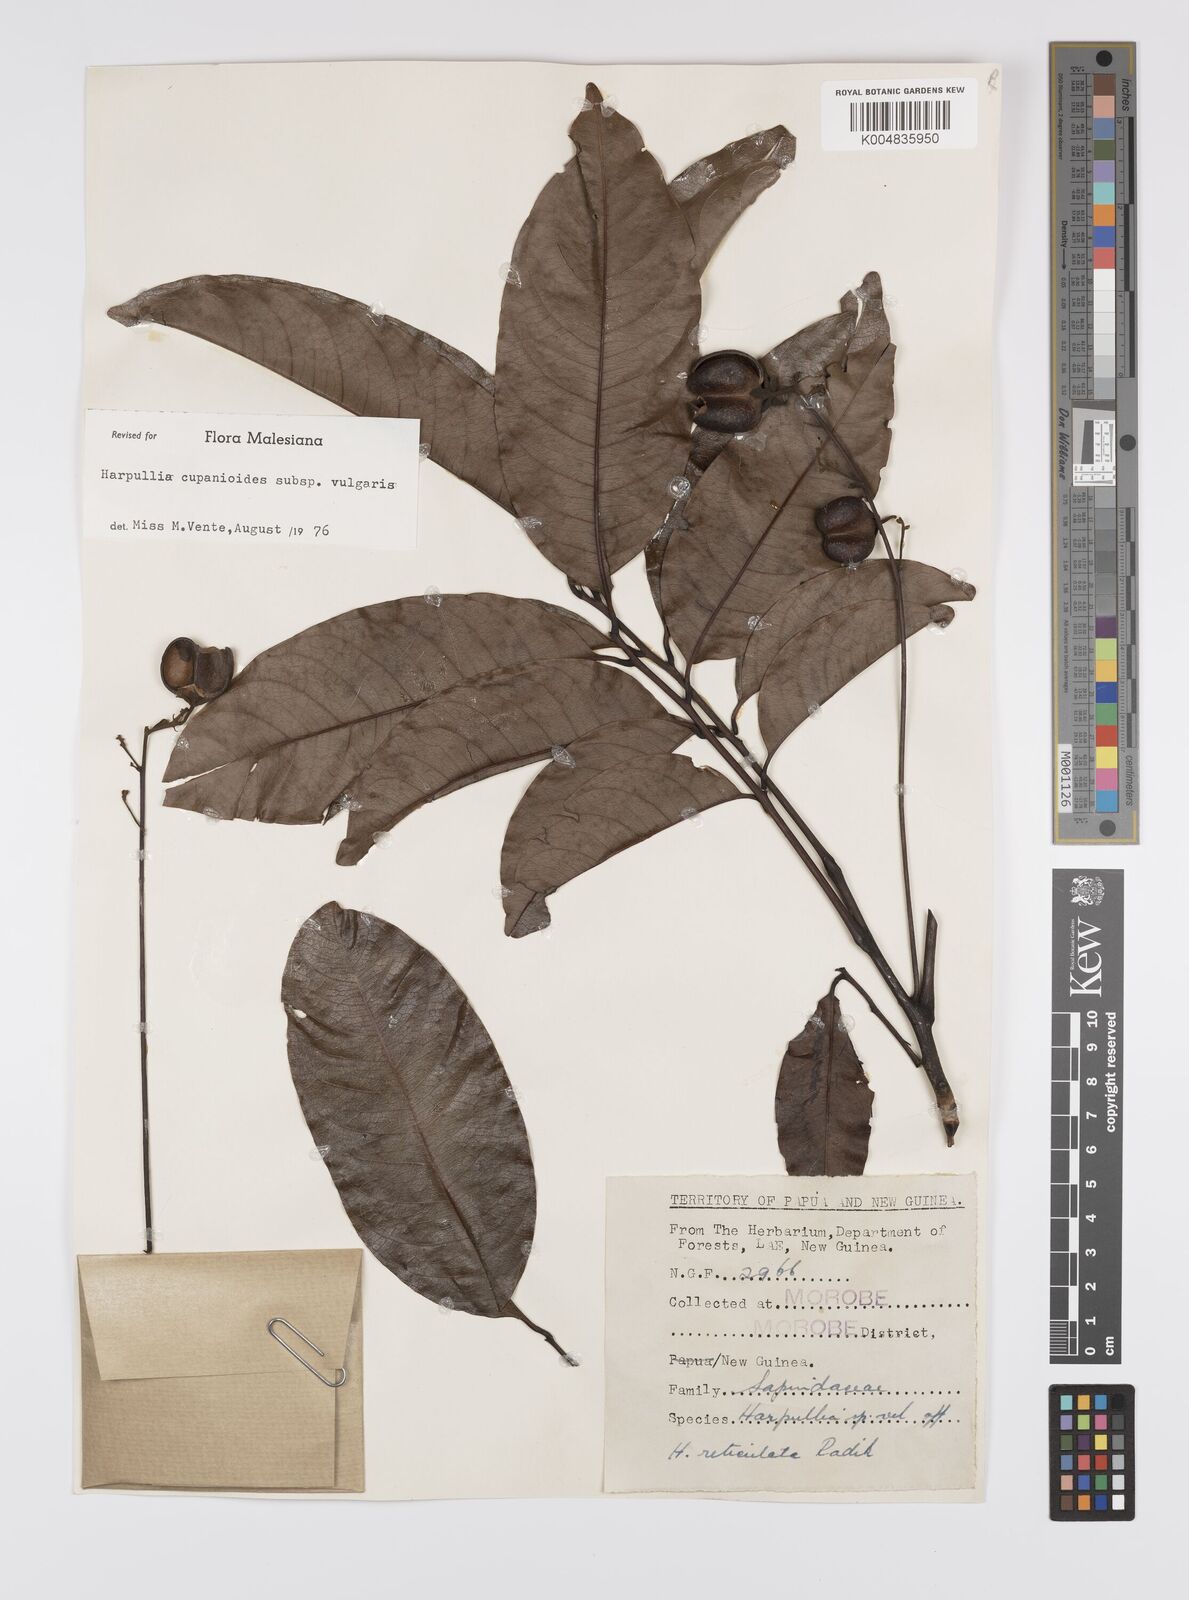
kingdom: Plantae
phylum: Tracheophyta
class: Magnoliopsida
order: Sapindales
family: Sapindaceae
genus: Harpullia
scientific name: Harpullia cupanioides
